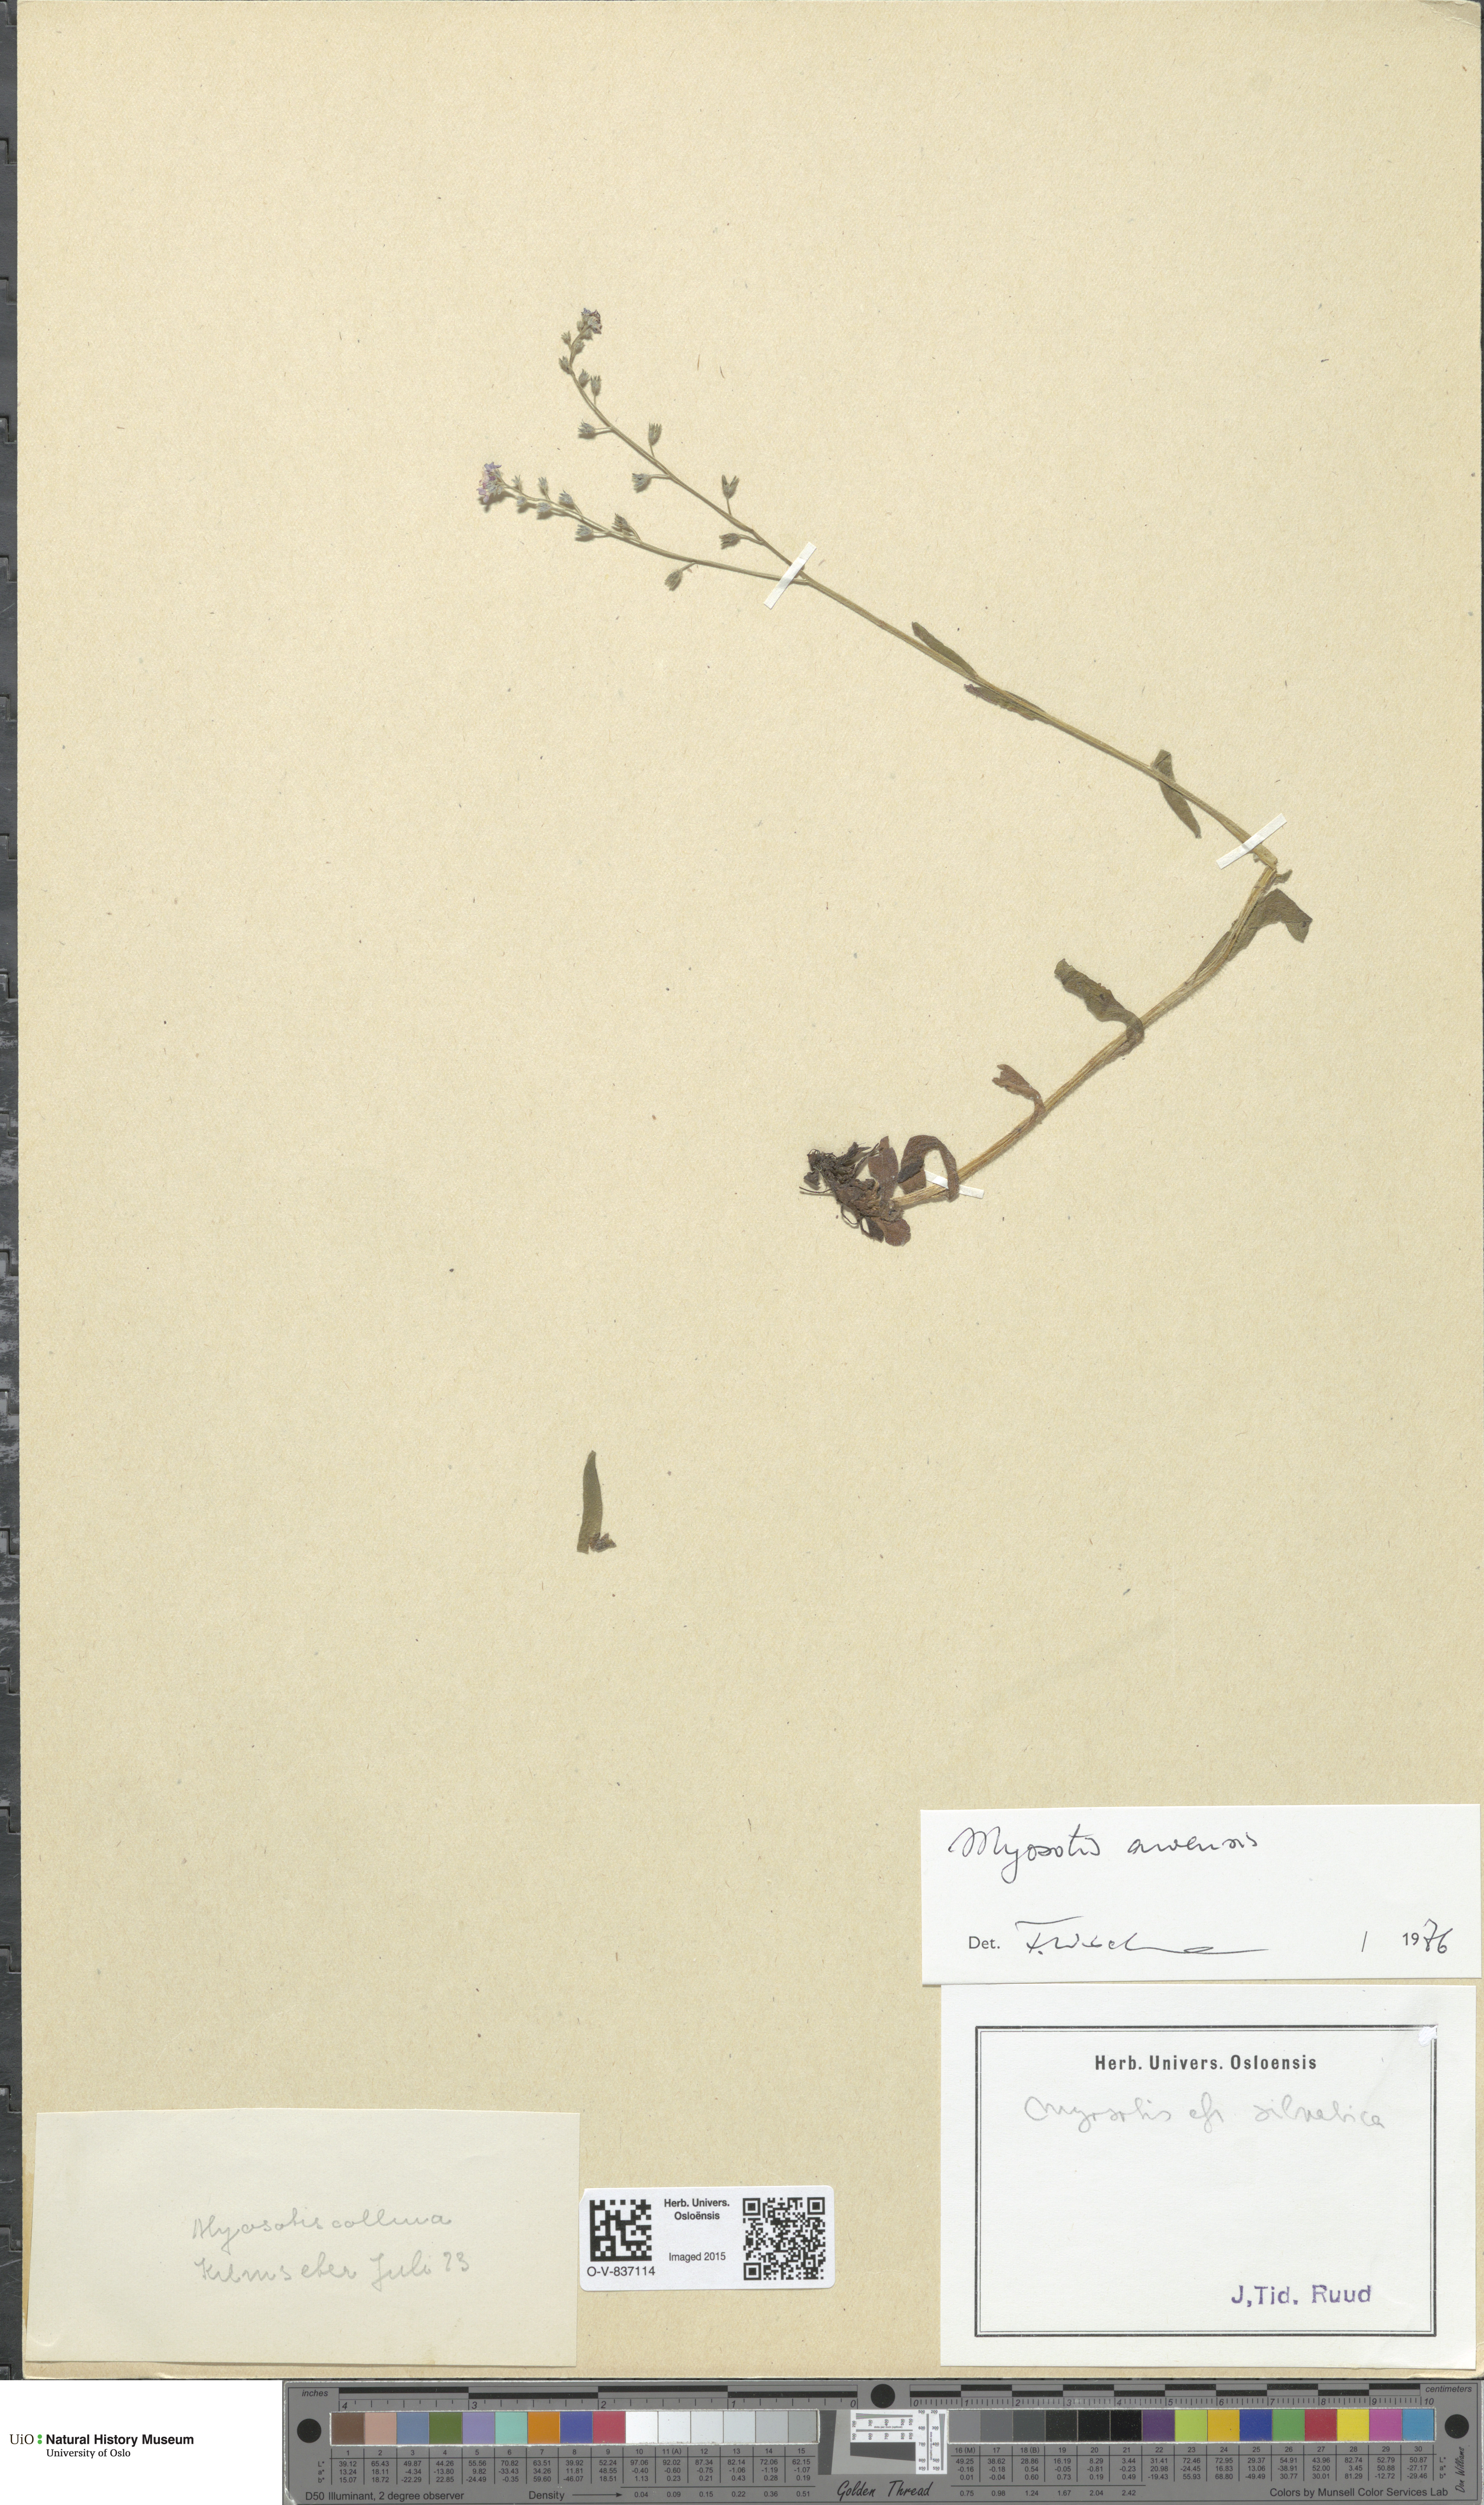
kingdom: Plantae
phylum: Tracheophyta
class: Magnoliopsida
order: Boraginales
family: Boraginaceae
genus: Myosotis
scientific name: Myosotis arvensis
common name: Field forget-me-not
